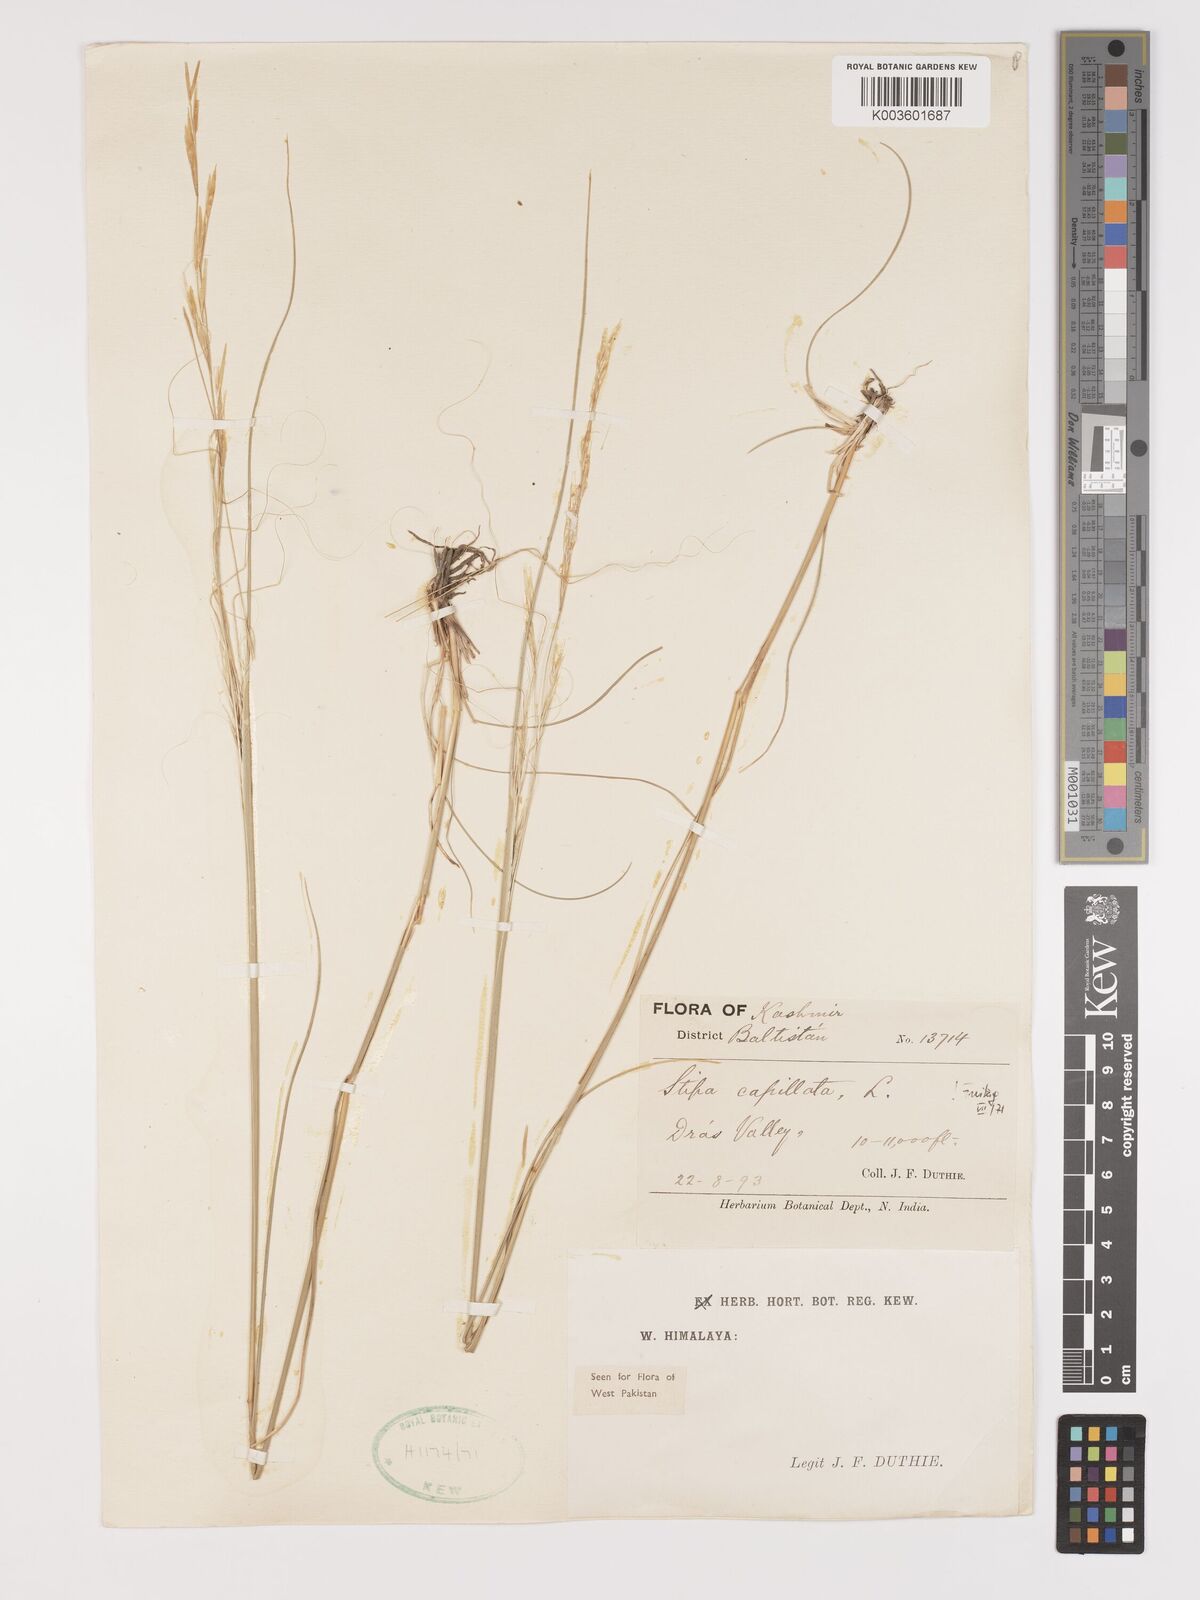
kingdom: Plantae
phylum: Tracheophyta
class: Liliopsida
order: Poales
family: Poaceae
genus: Stipa
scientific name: Stipa capillata
